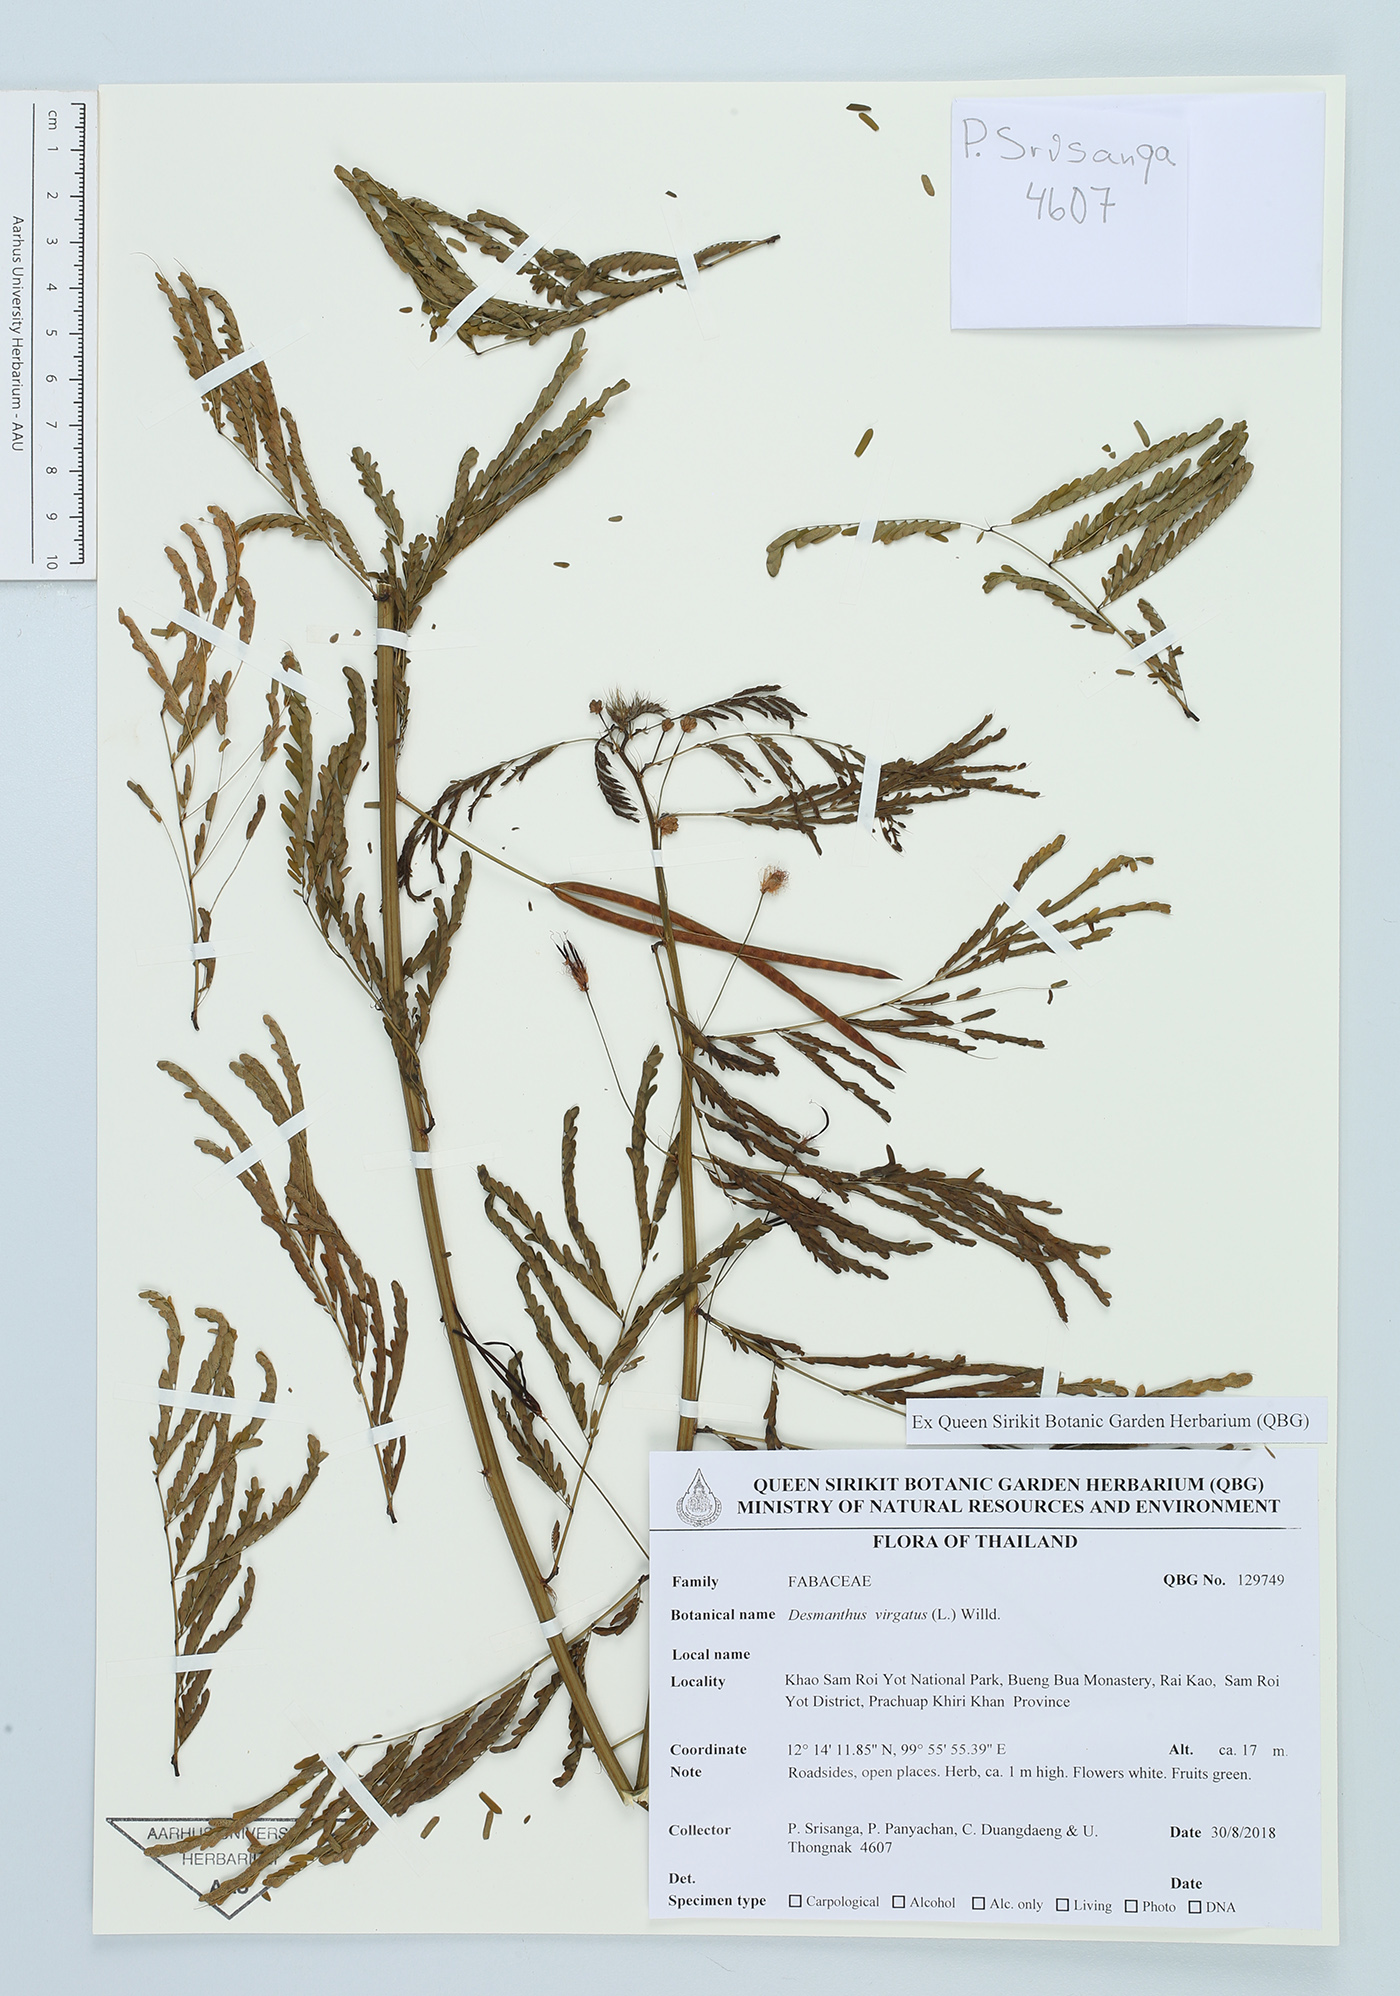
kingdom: Plantae
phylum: Tracheophyta
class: Magnoliopsida
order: Fabales
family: Fabaceae
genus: Desmanthus
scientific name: Desmanthus virgatus
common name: Wild tantan
